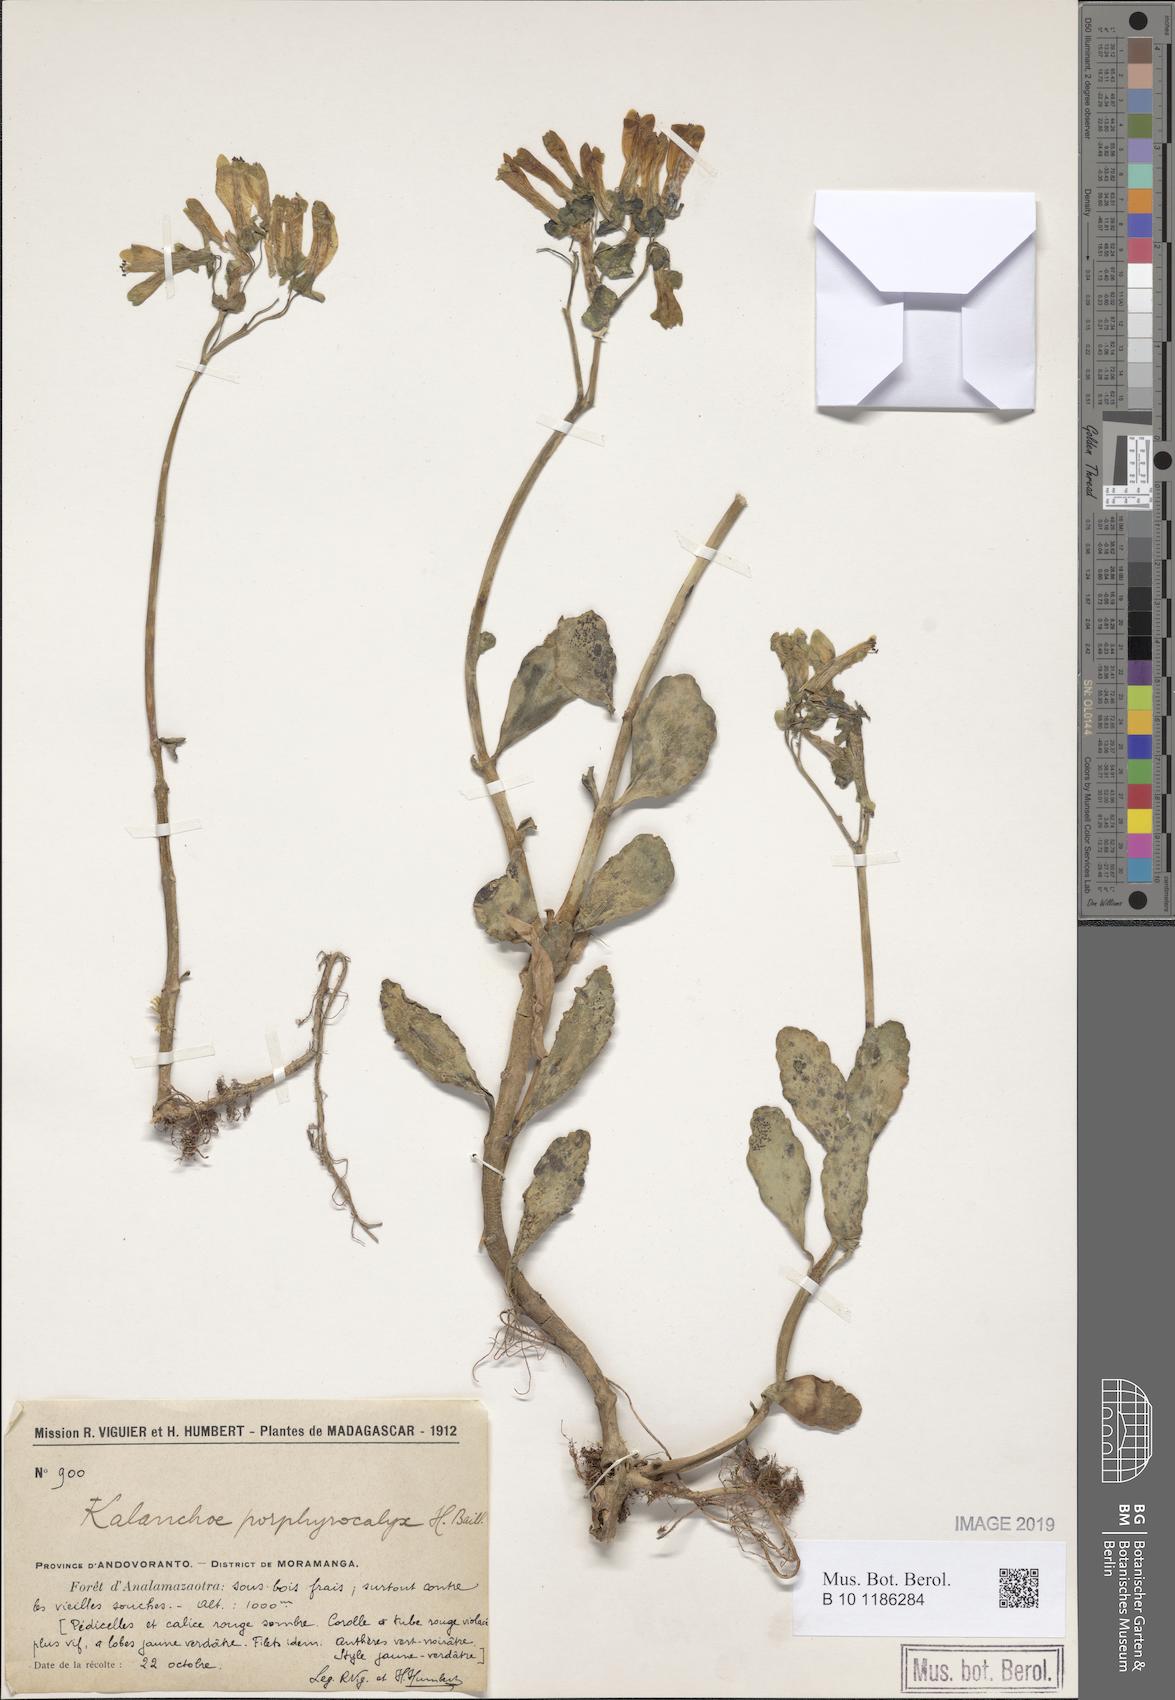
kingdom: Plantae
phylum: Tracheophyta
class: Magnoliopsida
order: Saxifragales
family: Crassulaceae
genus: Kalanchoe
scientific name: Kalanchoe porphyrocalyx
